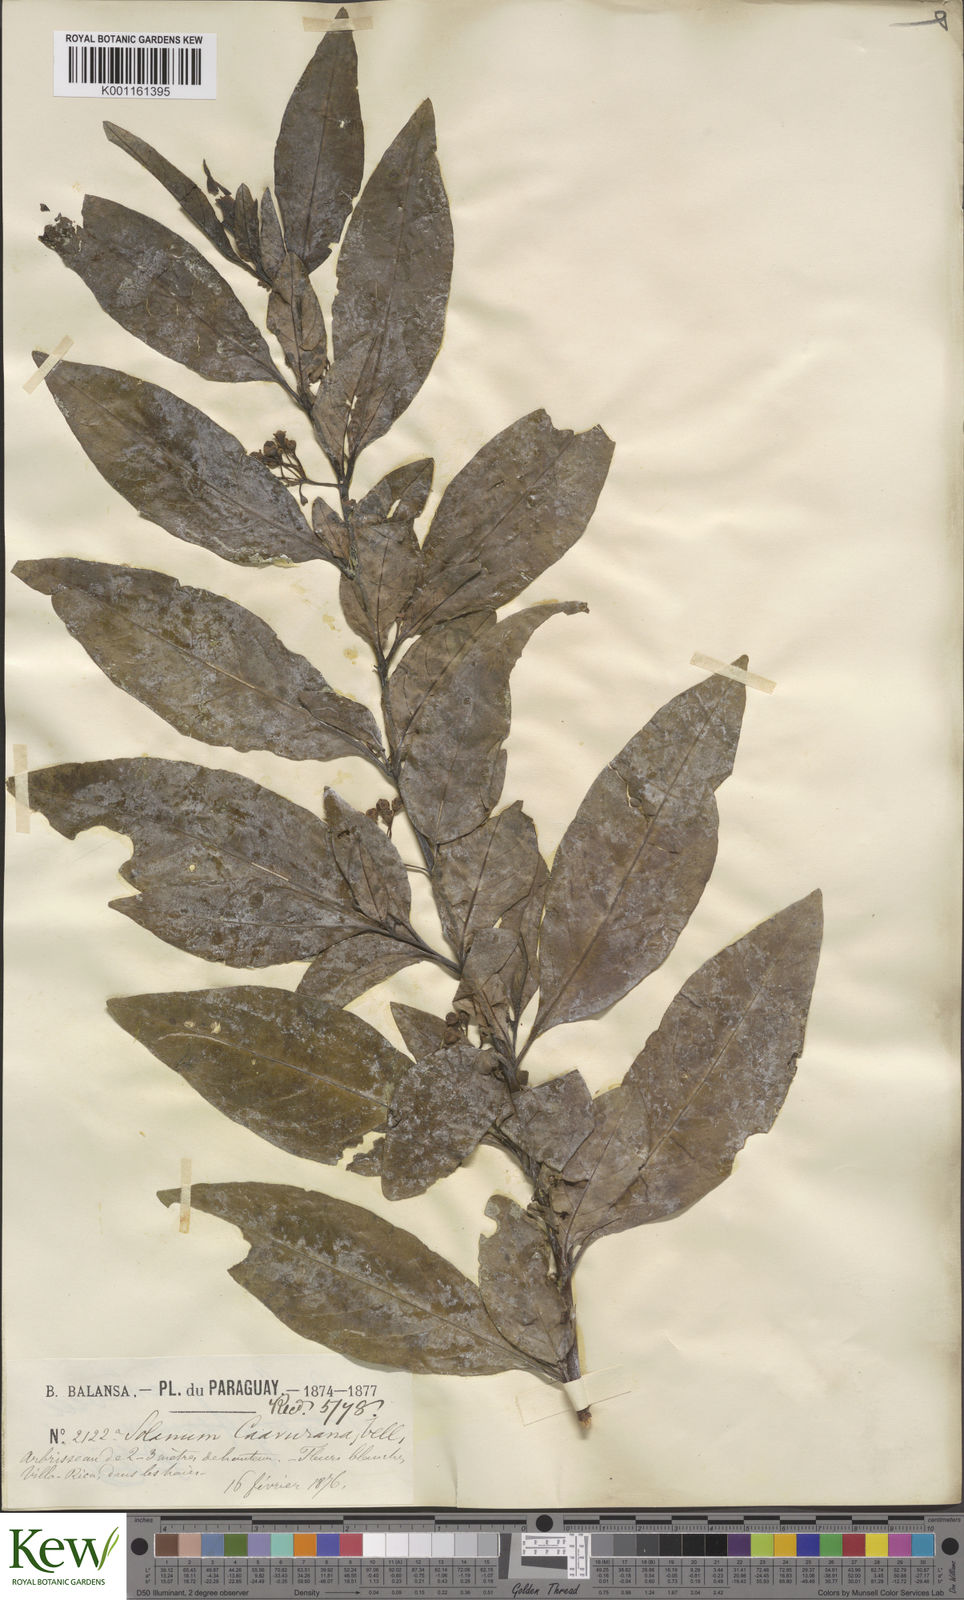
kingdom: Plantae
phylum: Tracheophyta
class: Magnoliopsida
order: Solanales
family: Solanaceae
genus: Solanum
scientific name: Solanum caavurana
